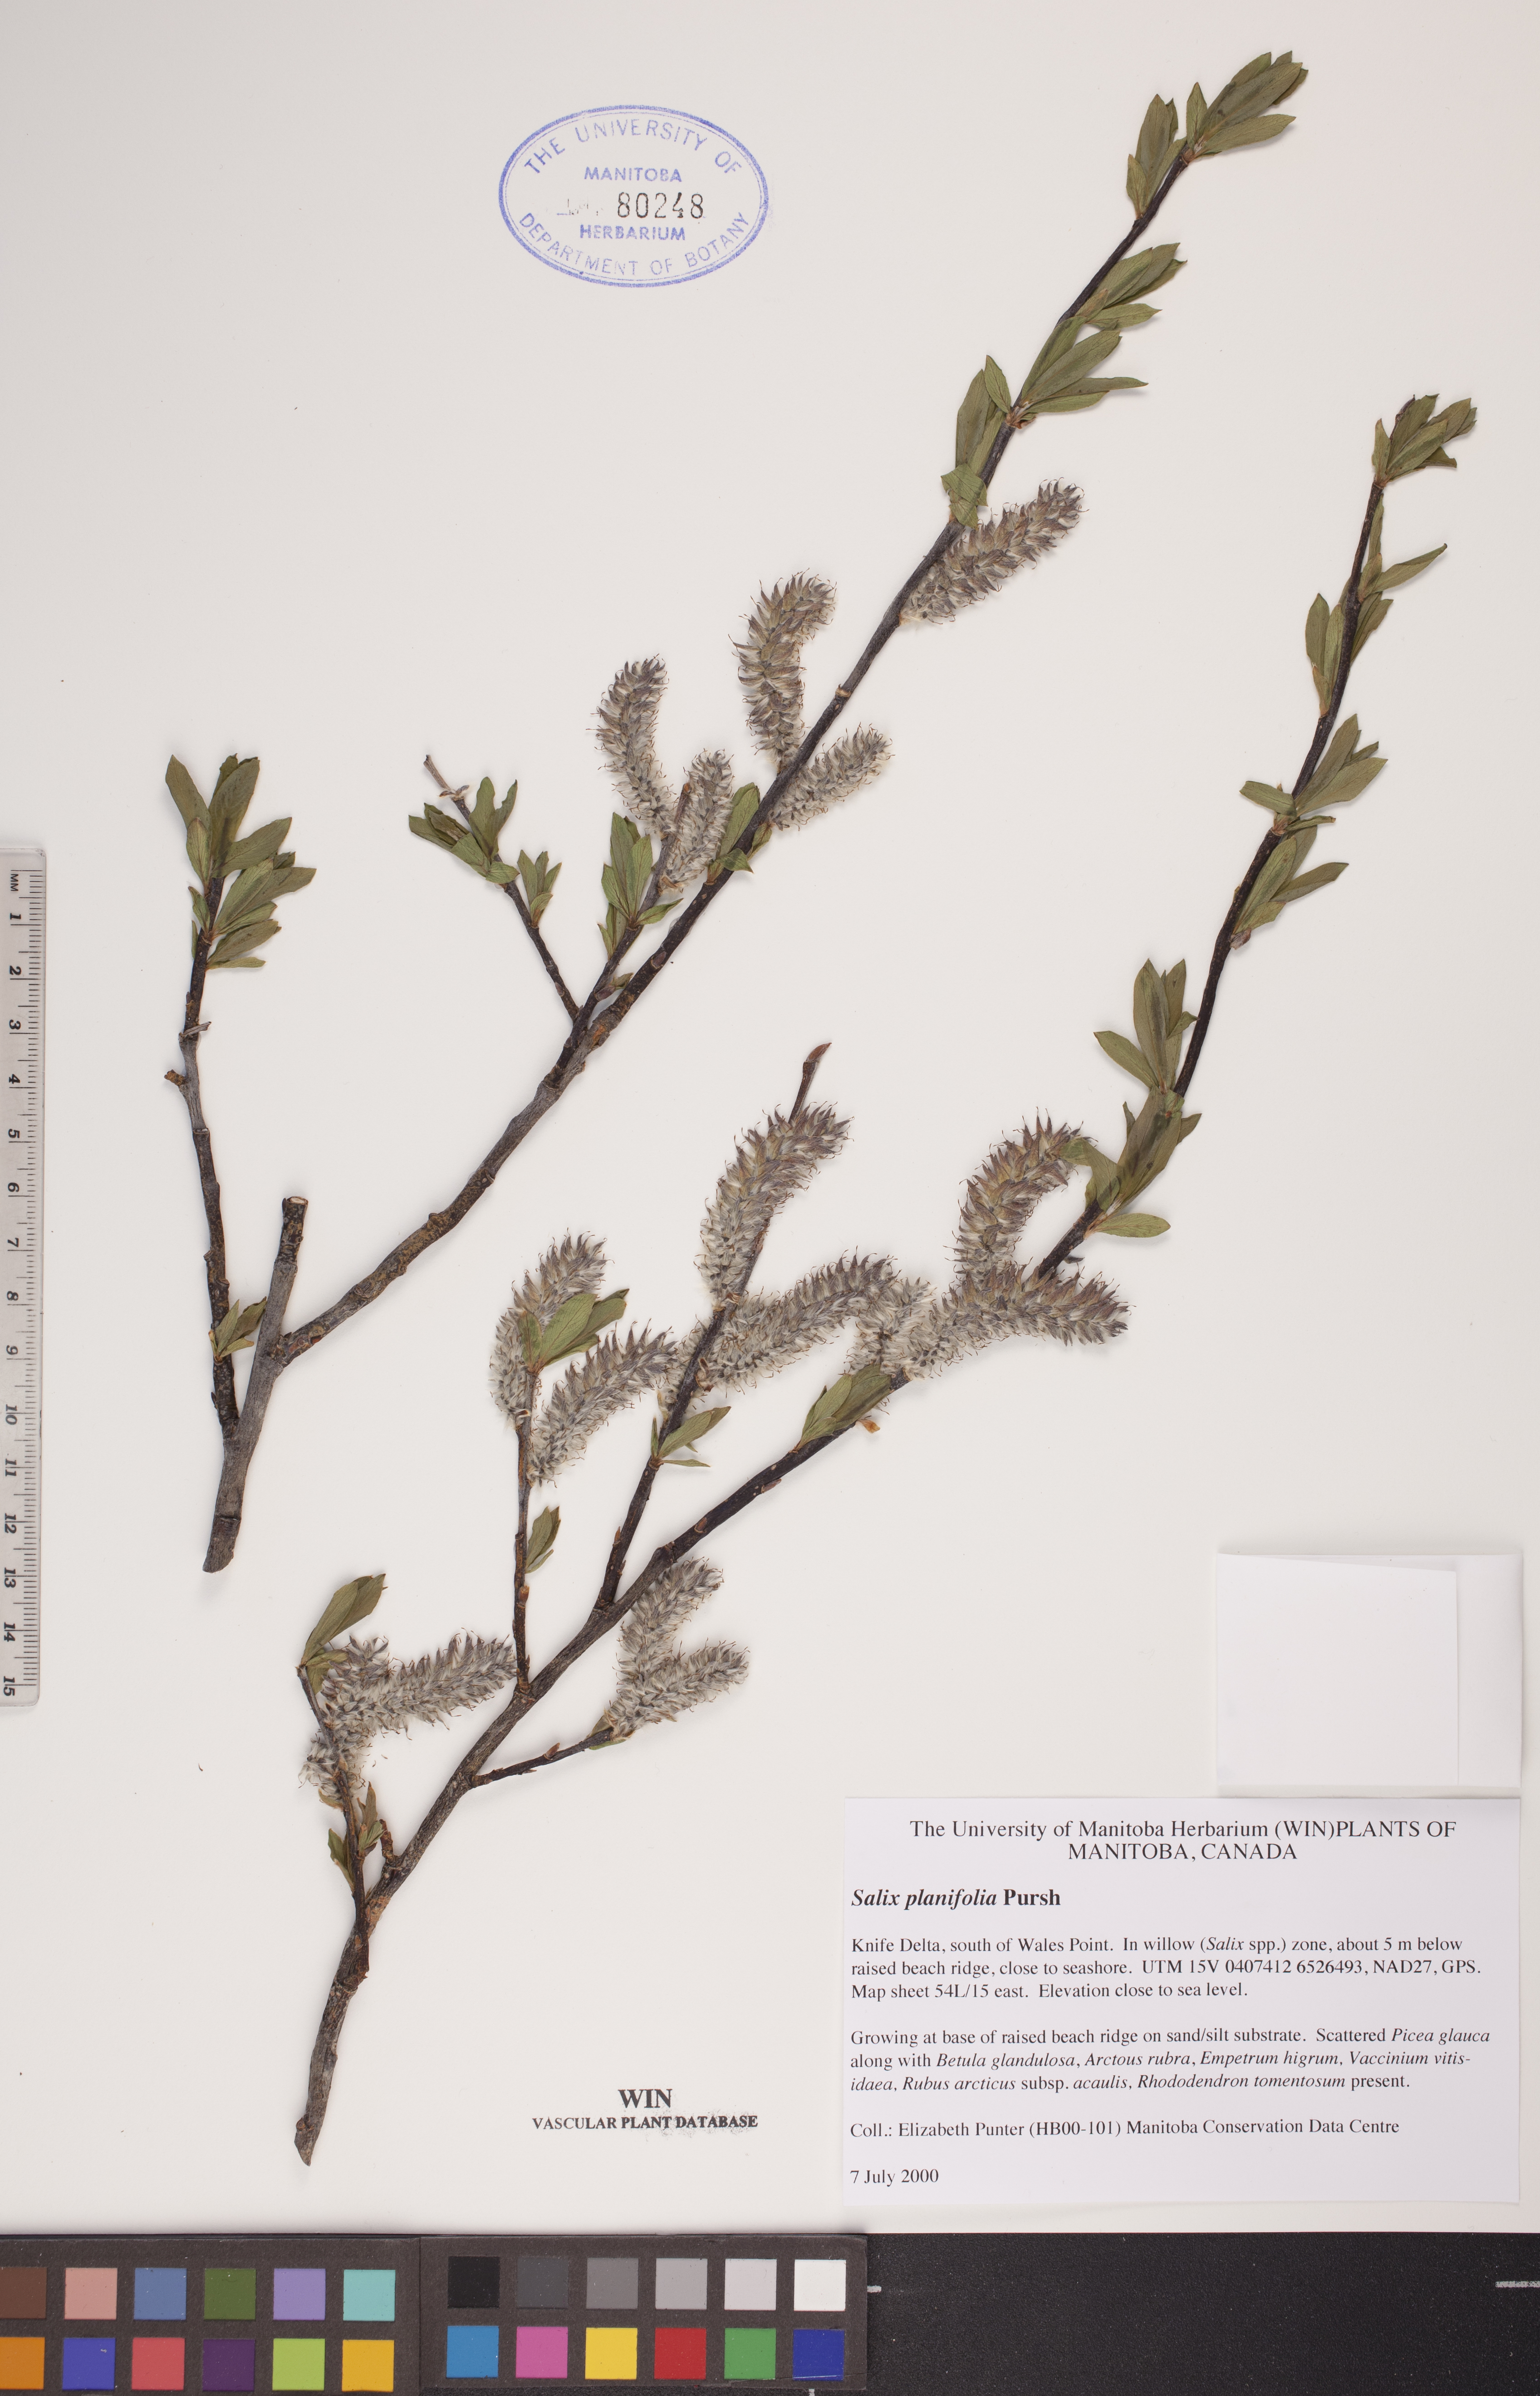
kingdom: Plantae
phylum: Tracheophyta
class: Magnoliopsida
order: Malpighiales
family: Salicaceae
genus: Salix
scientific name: Salix planifolia
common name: Mountain willow
